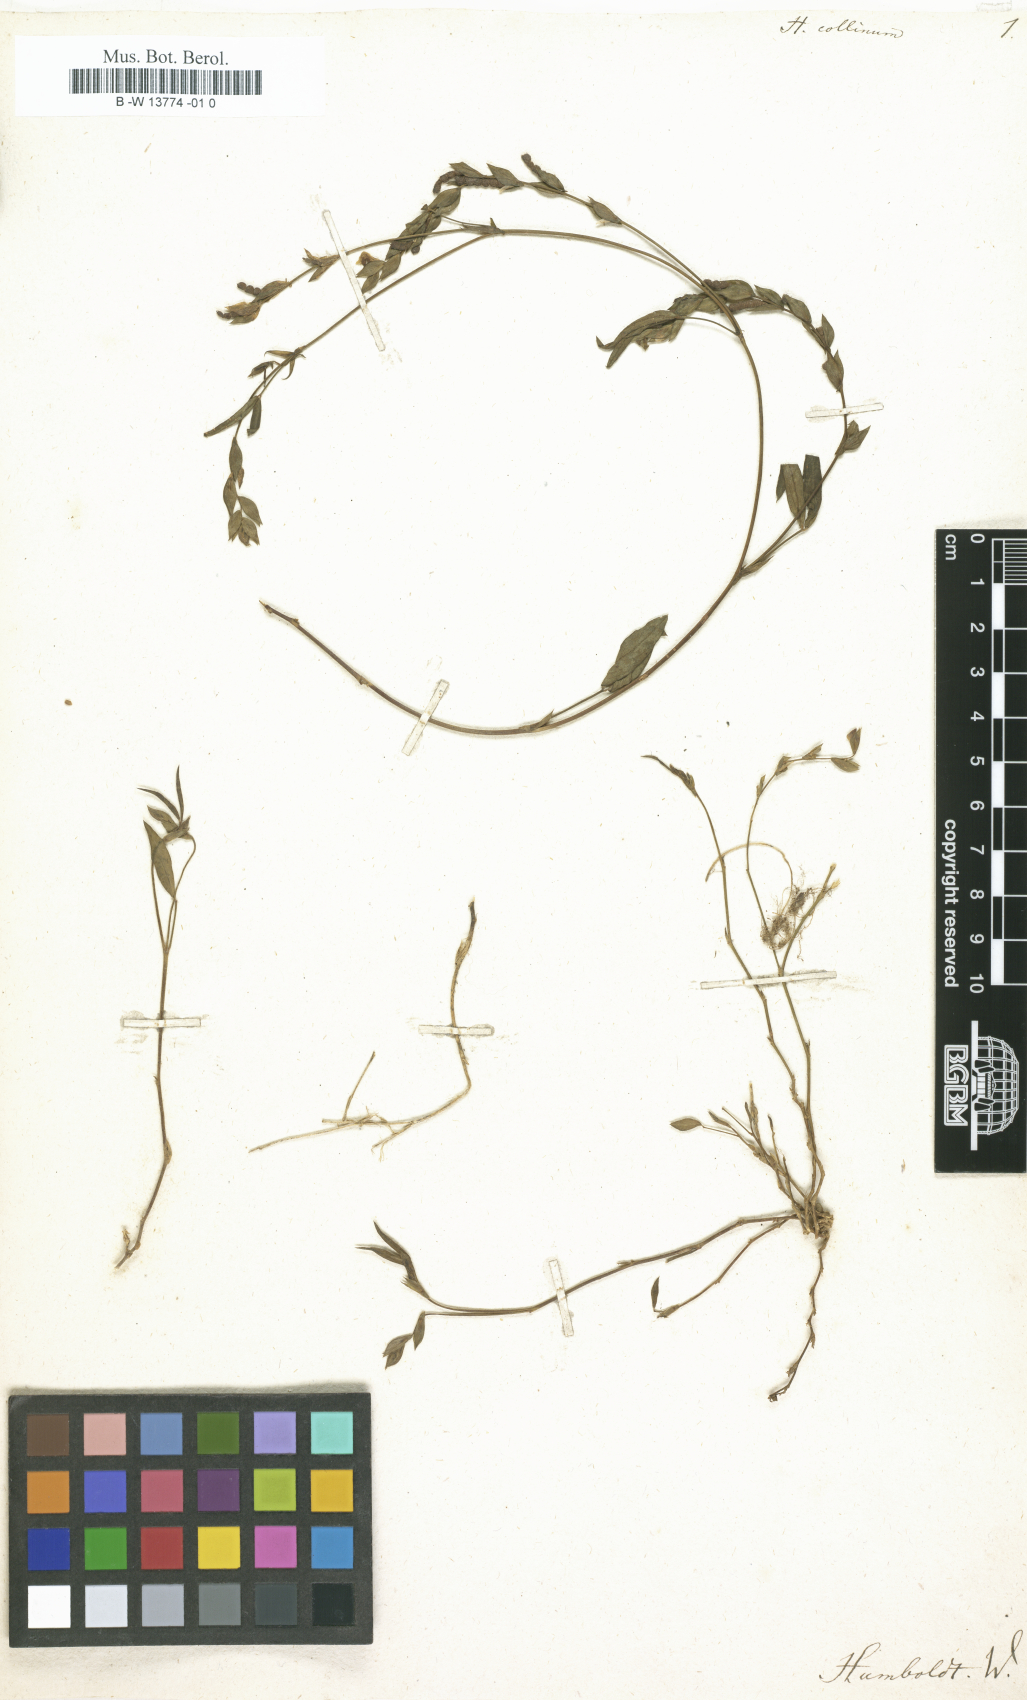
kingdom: Plantae
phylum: Tracheophyta
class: Magnoliopsida
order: Fabales
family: Fabaceae
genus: Hedysarum
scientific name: Hedysarum collinum
